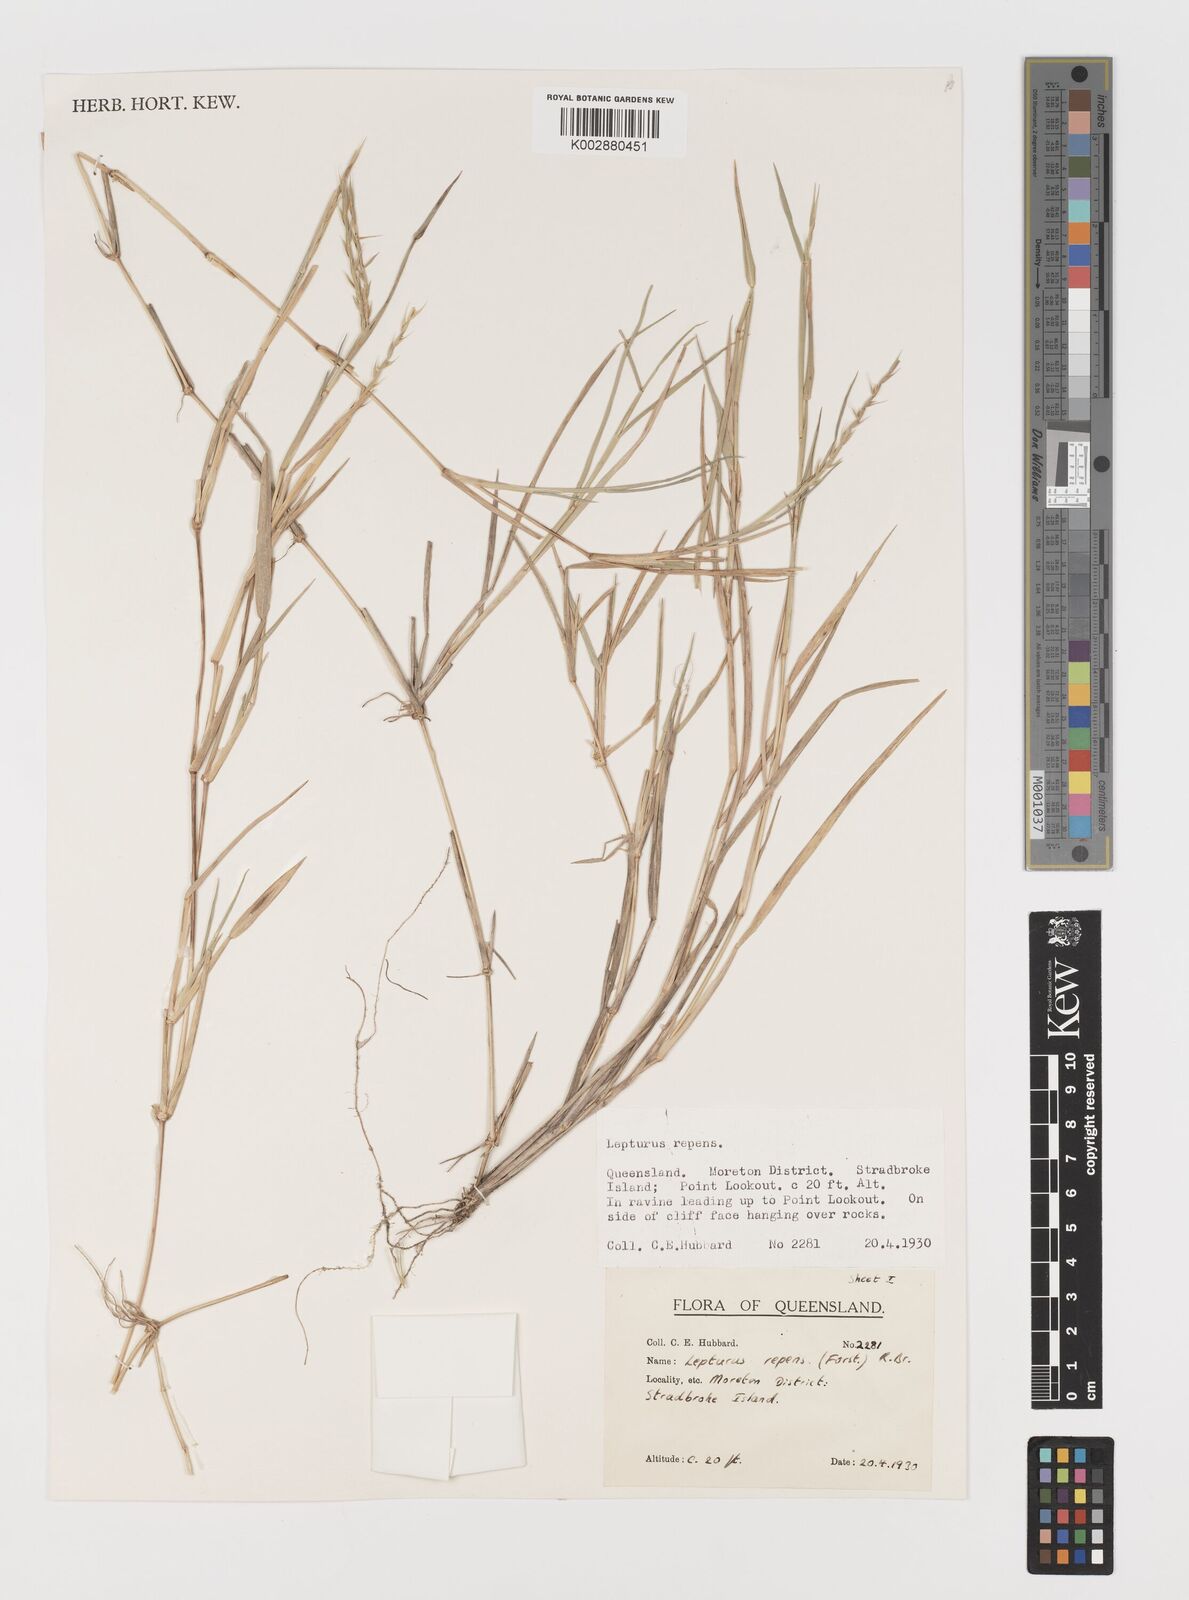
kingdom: Plantae
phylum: Tracheophyta
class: Liliopsida
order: Poales
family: Poaceae
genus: Lepturus
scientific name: Lepturus repens
